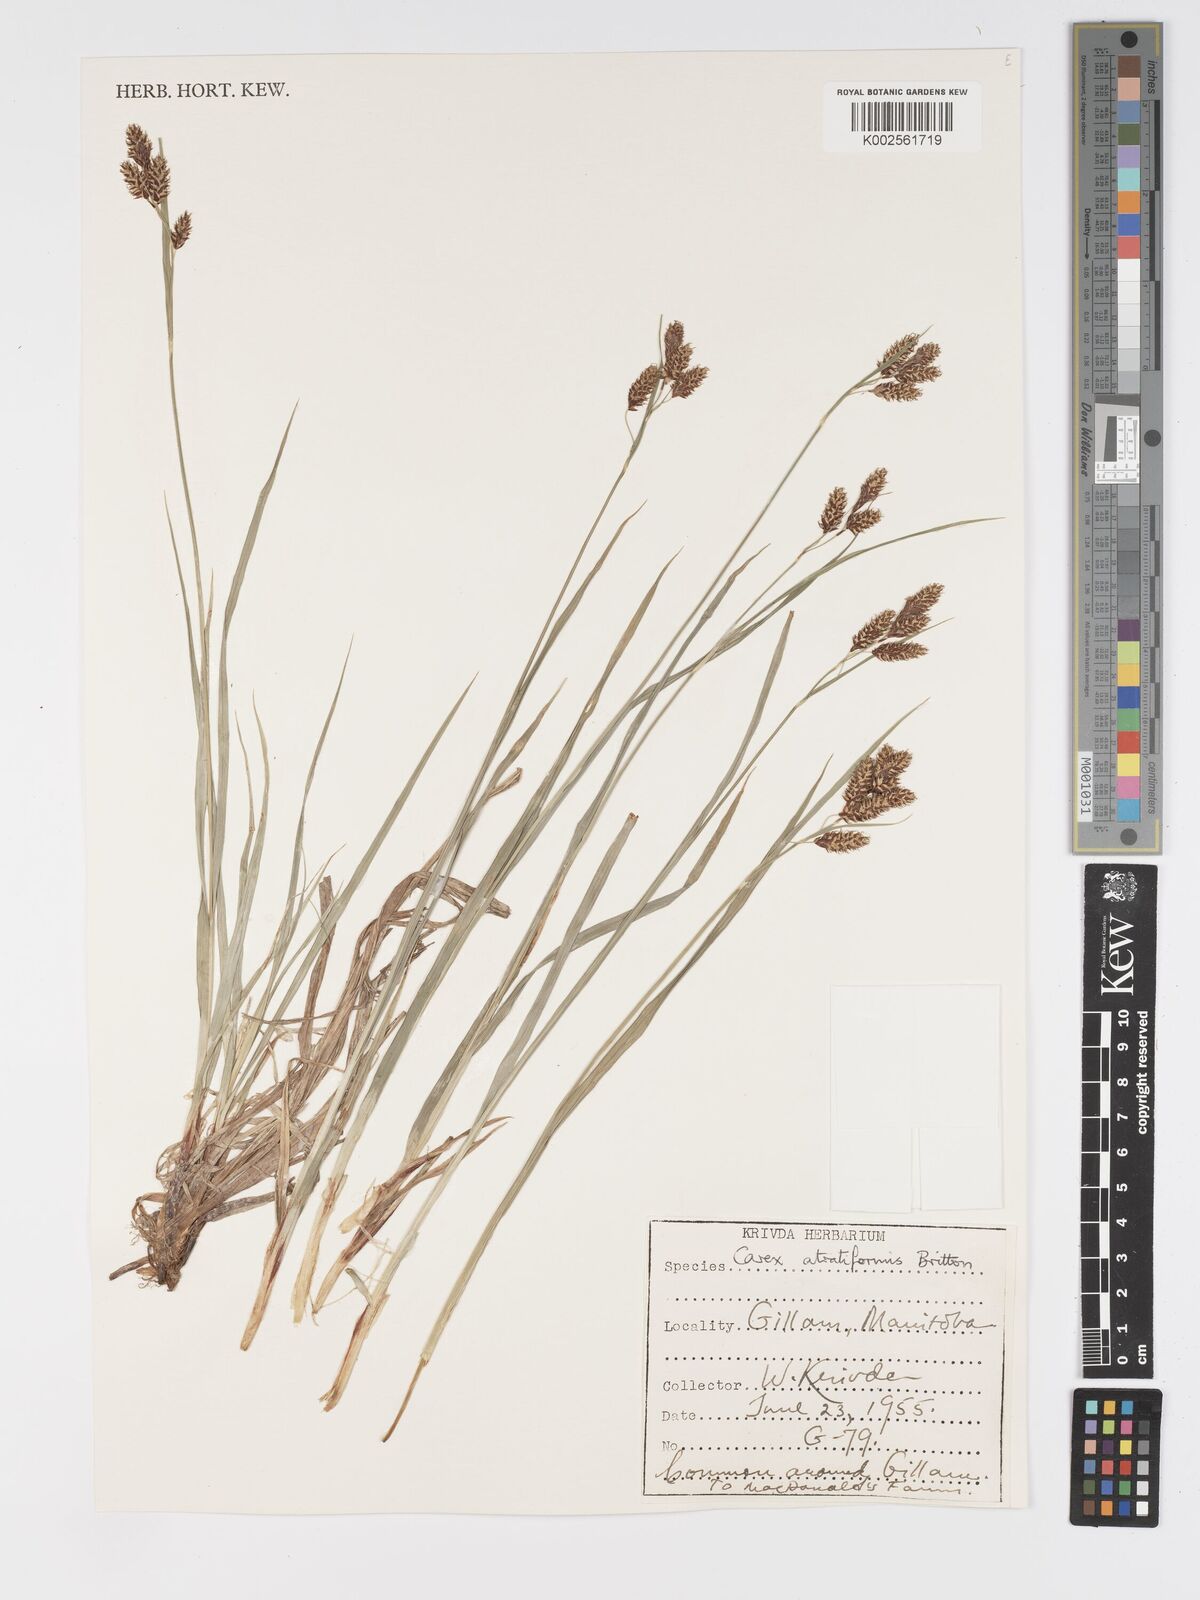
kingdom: Plantae
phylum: Tracheophyta
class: Liliopsida
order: Poales
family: Cyperaceae
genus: Carex
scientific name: Carex atratiformis
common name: Black sedge
